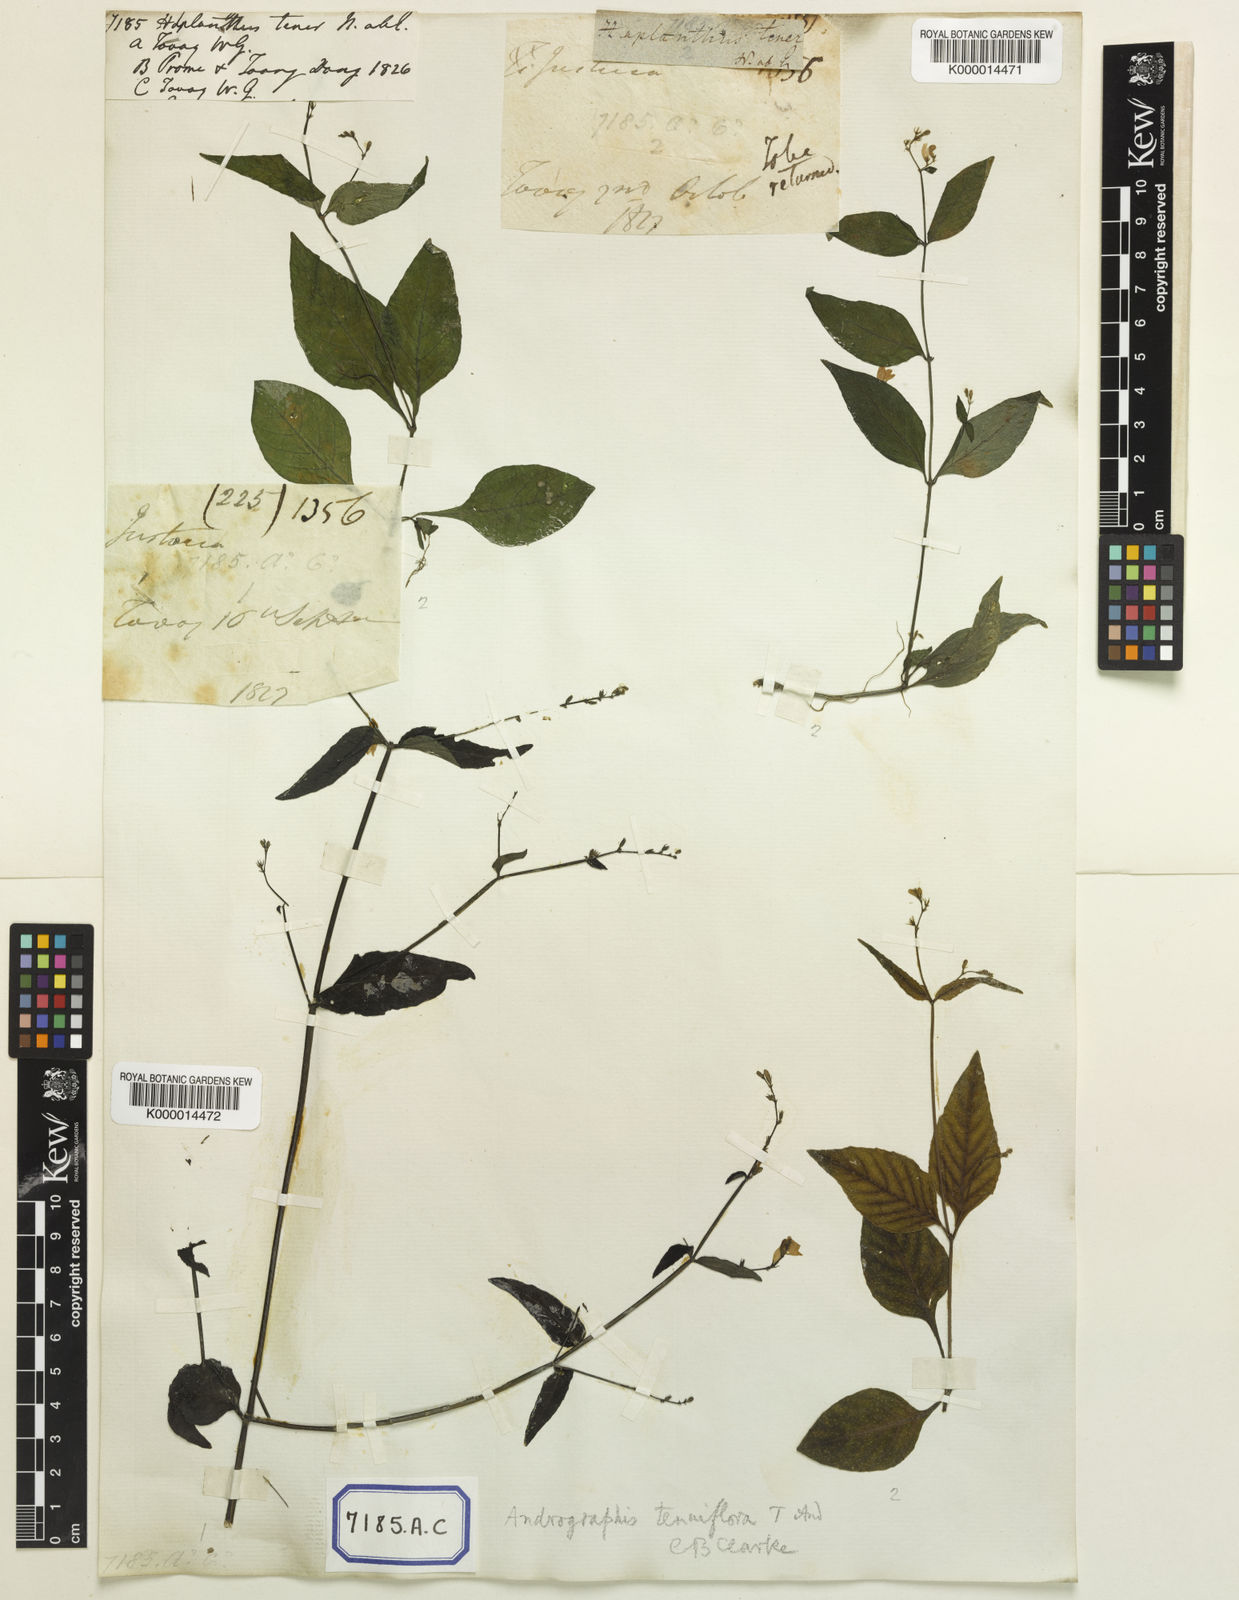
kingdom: Plantae
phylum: Tracheophyta
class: Magnoliopsida
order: Lamiales
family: Acanthaceae
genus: Haplanthus
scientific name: Haplanthus laxiflorus
